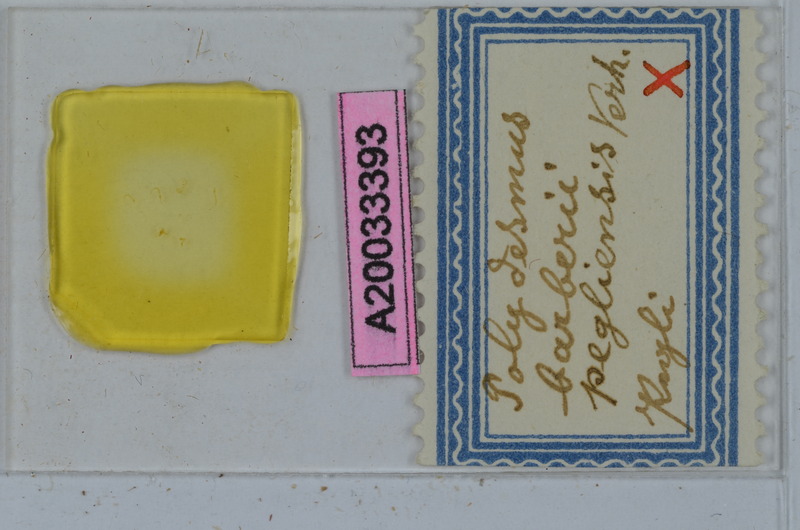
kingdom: Animalia
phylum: Arthropoda
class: Diplopoda
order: Polydesmida
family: Polydesmidae
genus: Polydesmus
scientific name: Polydesmus barberii
